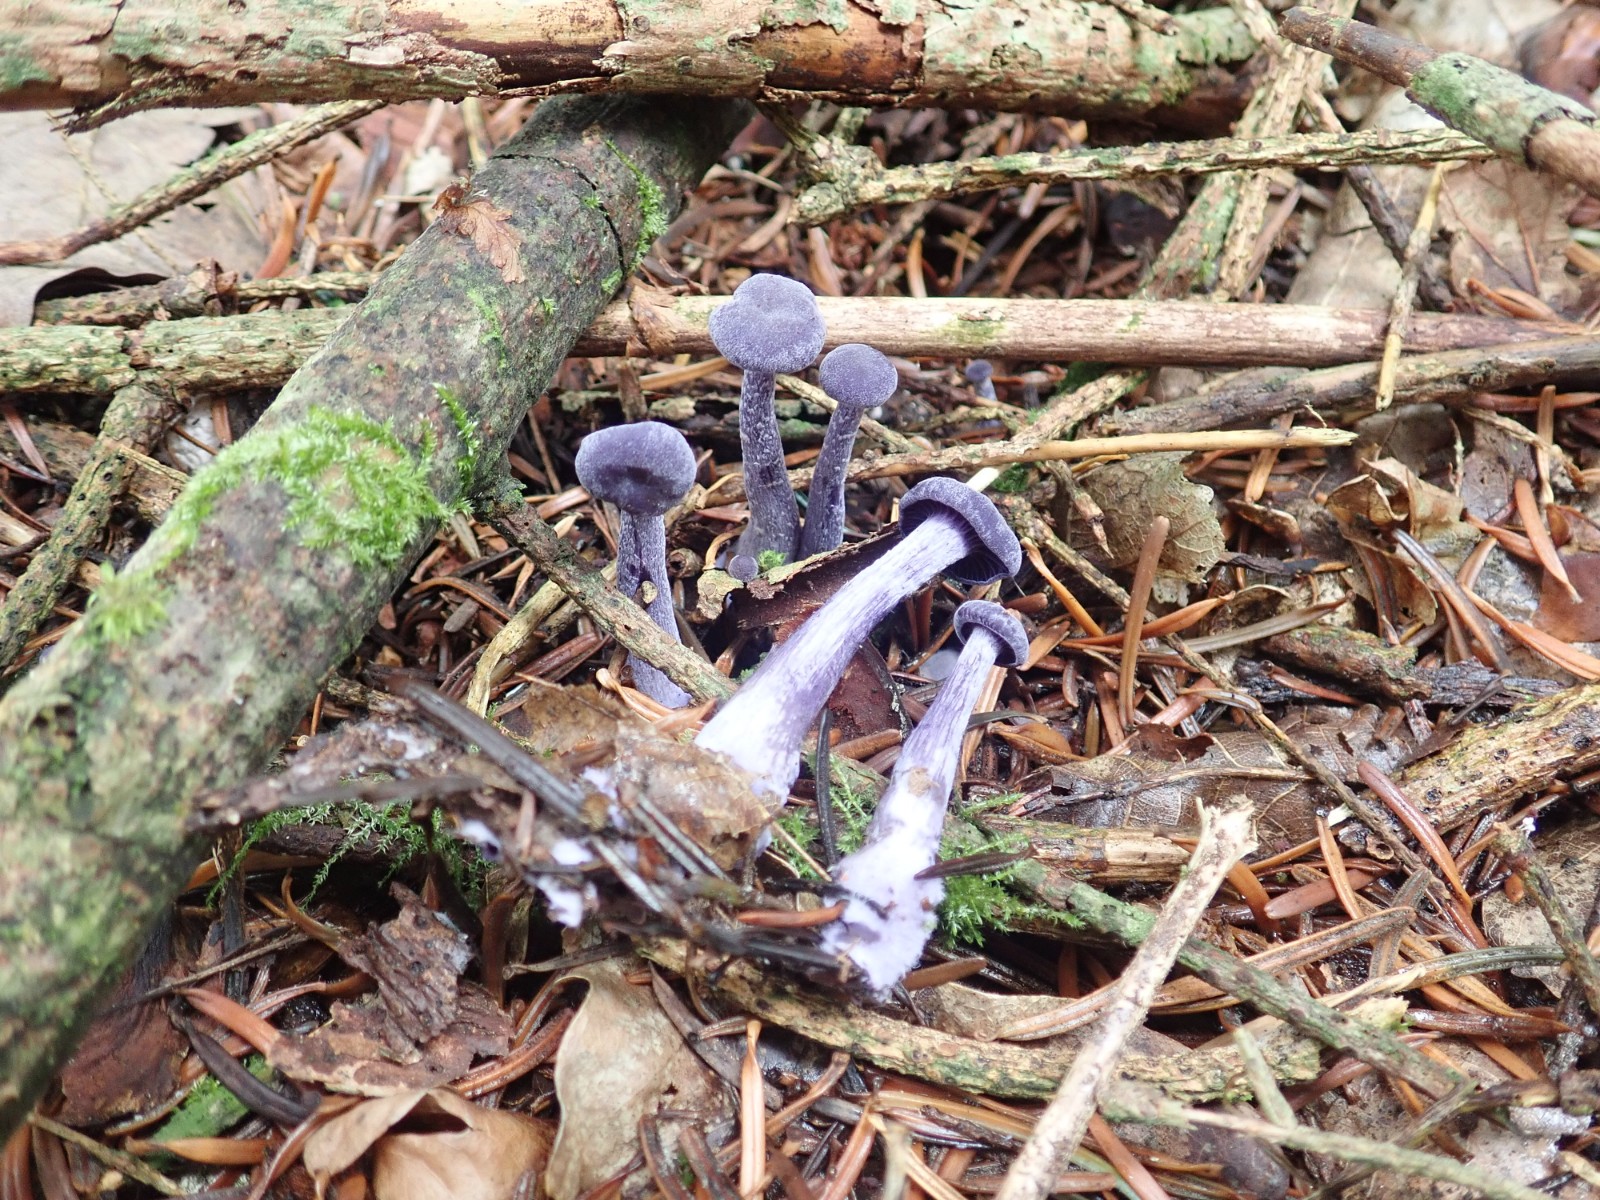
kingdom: Fungi
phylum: Basidiomycota
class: Agaricomycetes
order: Agaricales
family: Hydnangiaceae
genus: Laccaria
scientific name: Laccaria amethystina
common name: violet ametysthat
